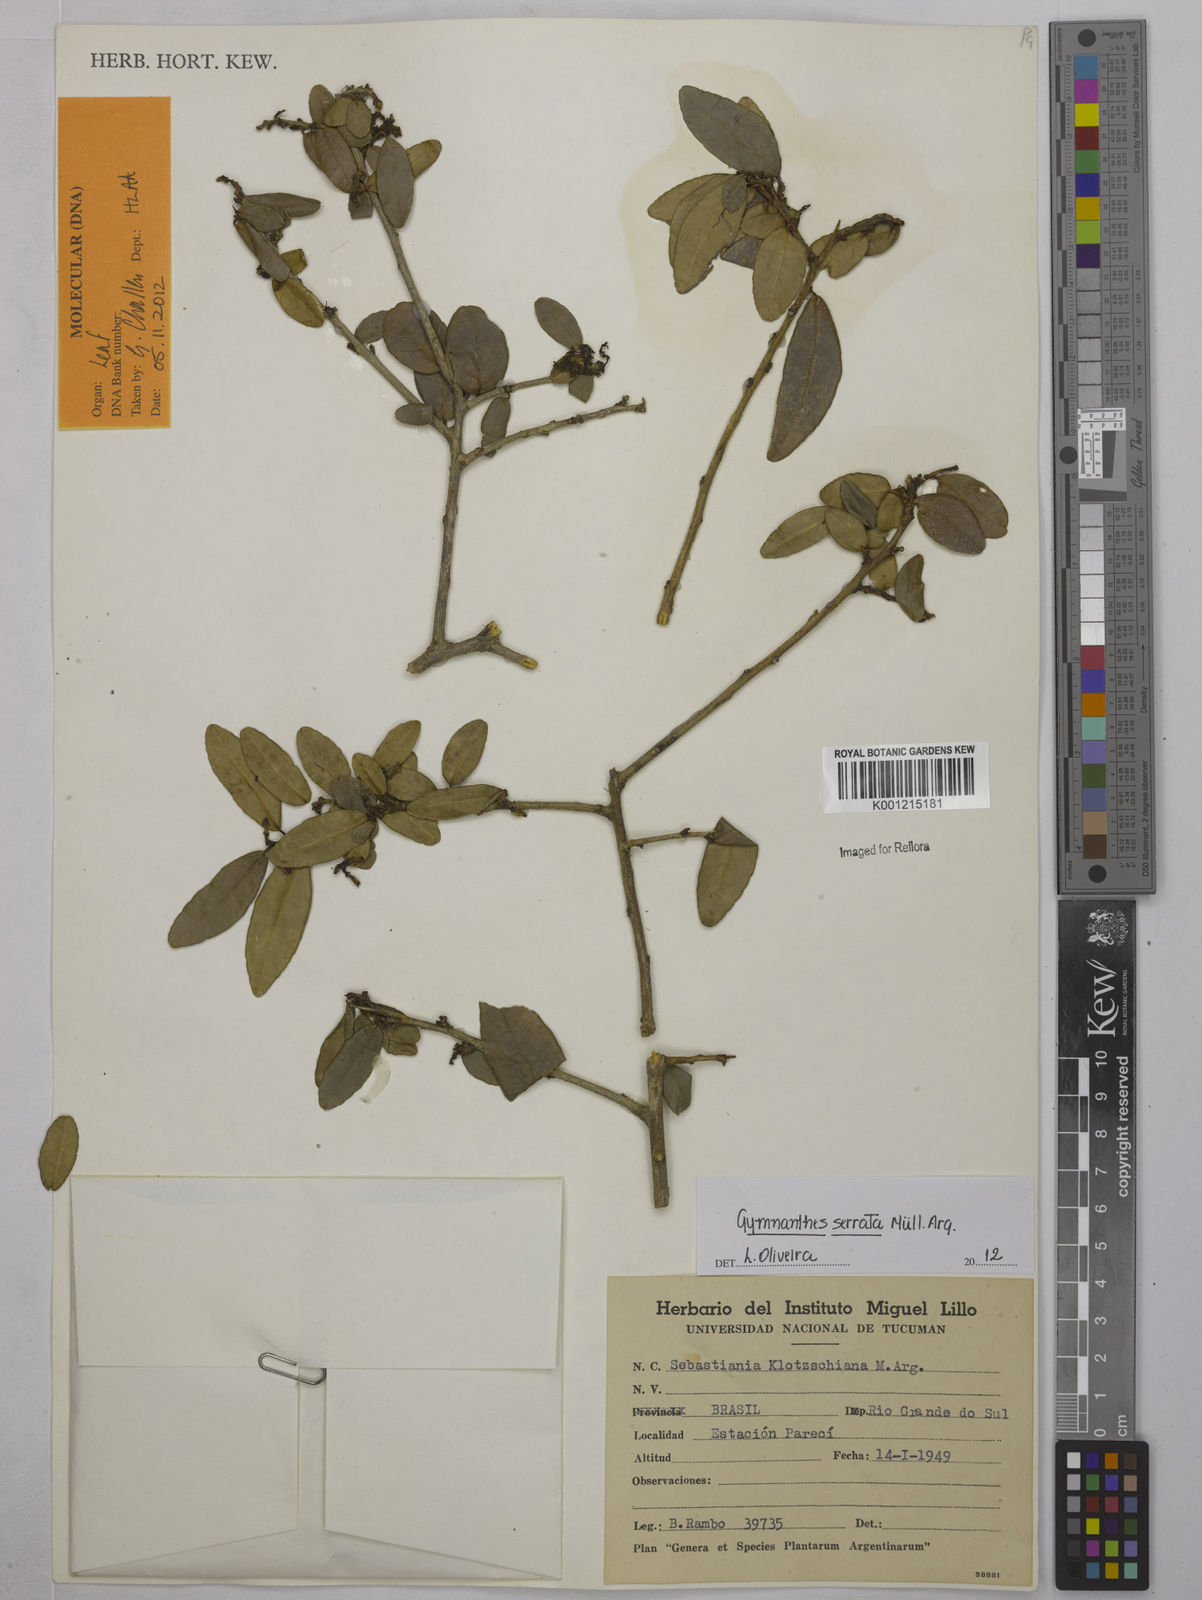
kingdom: Plantae
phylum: Tracheophyta
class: Magnoliopsida
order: Malpighiales
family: Euphorbiaceae
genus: Gymnanthes
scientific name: Gymnanthes
